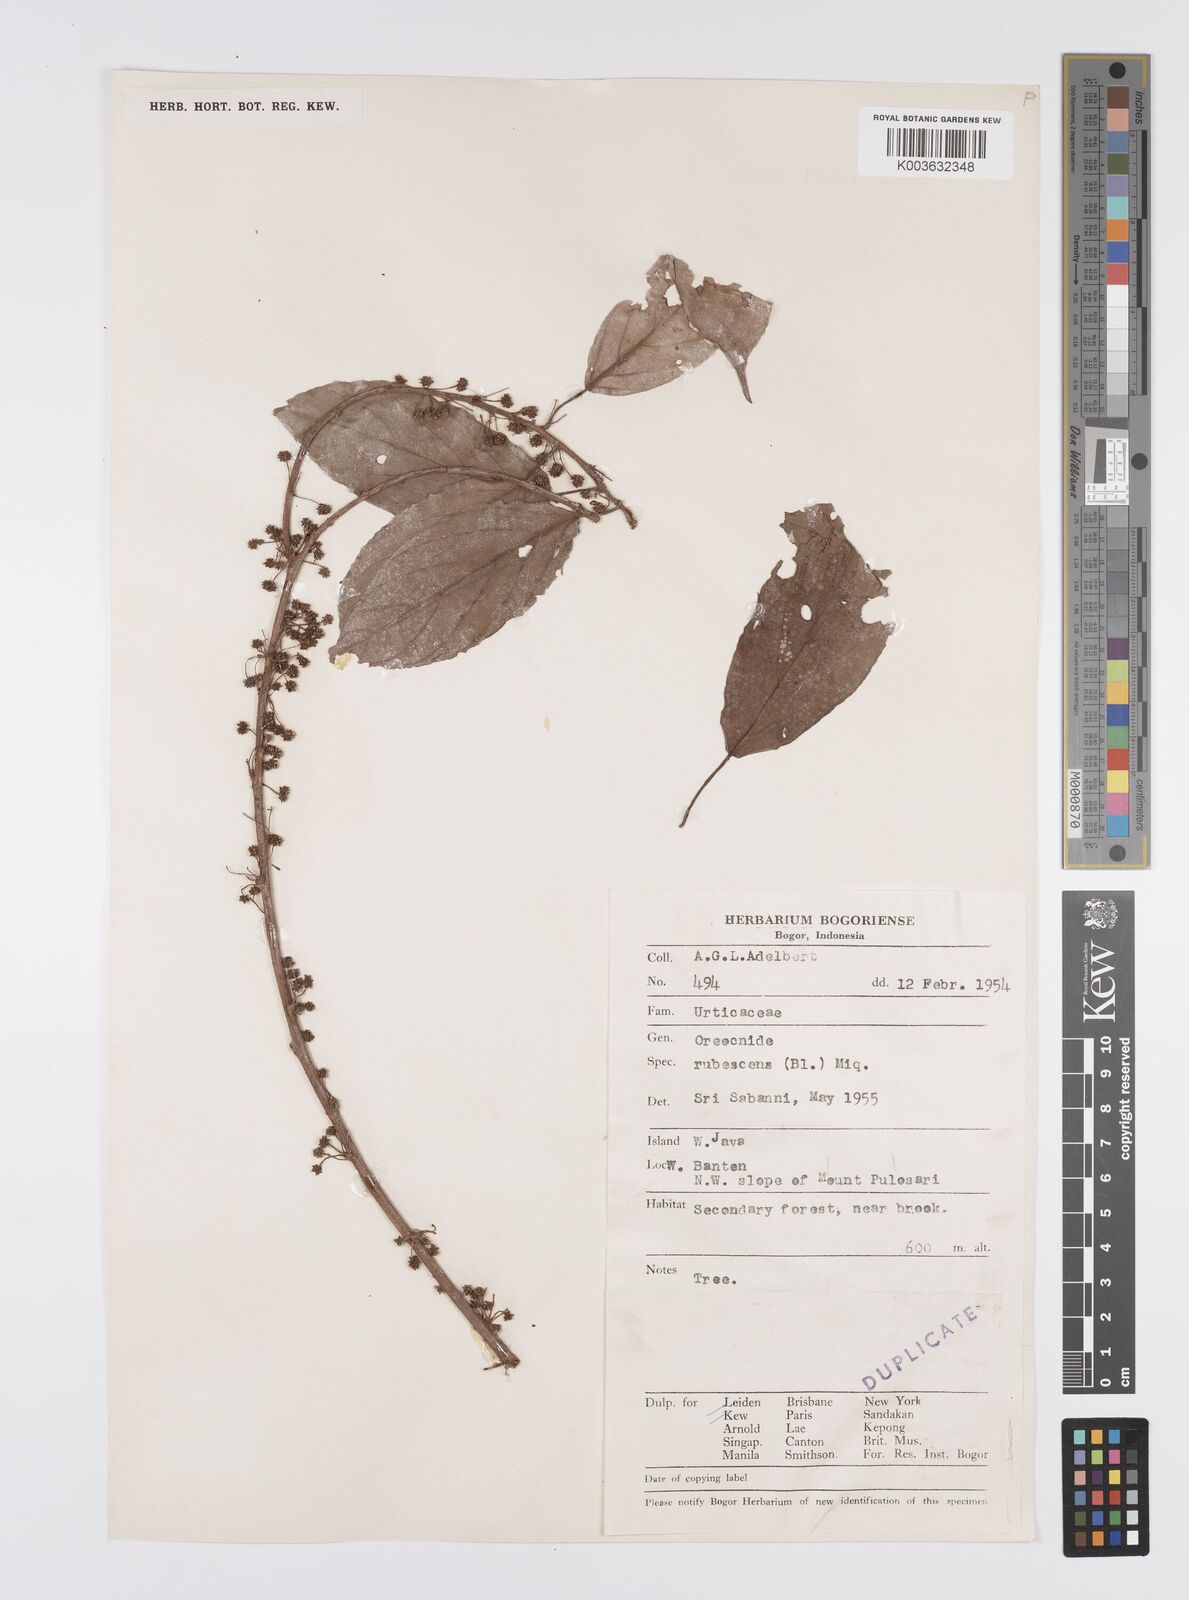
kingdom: Plantae
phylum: Tracheophyta
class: Magnoliopsida
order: Rosales
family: Urticaceae
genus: Oreocnide
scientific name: Oreocnide rubescens
